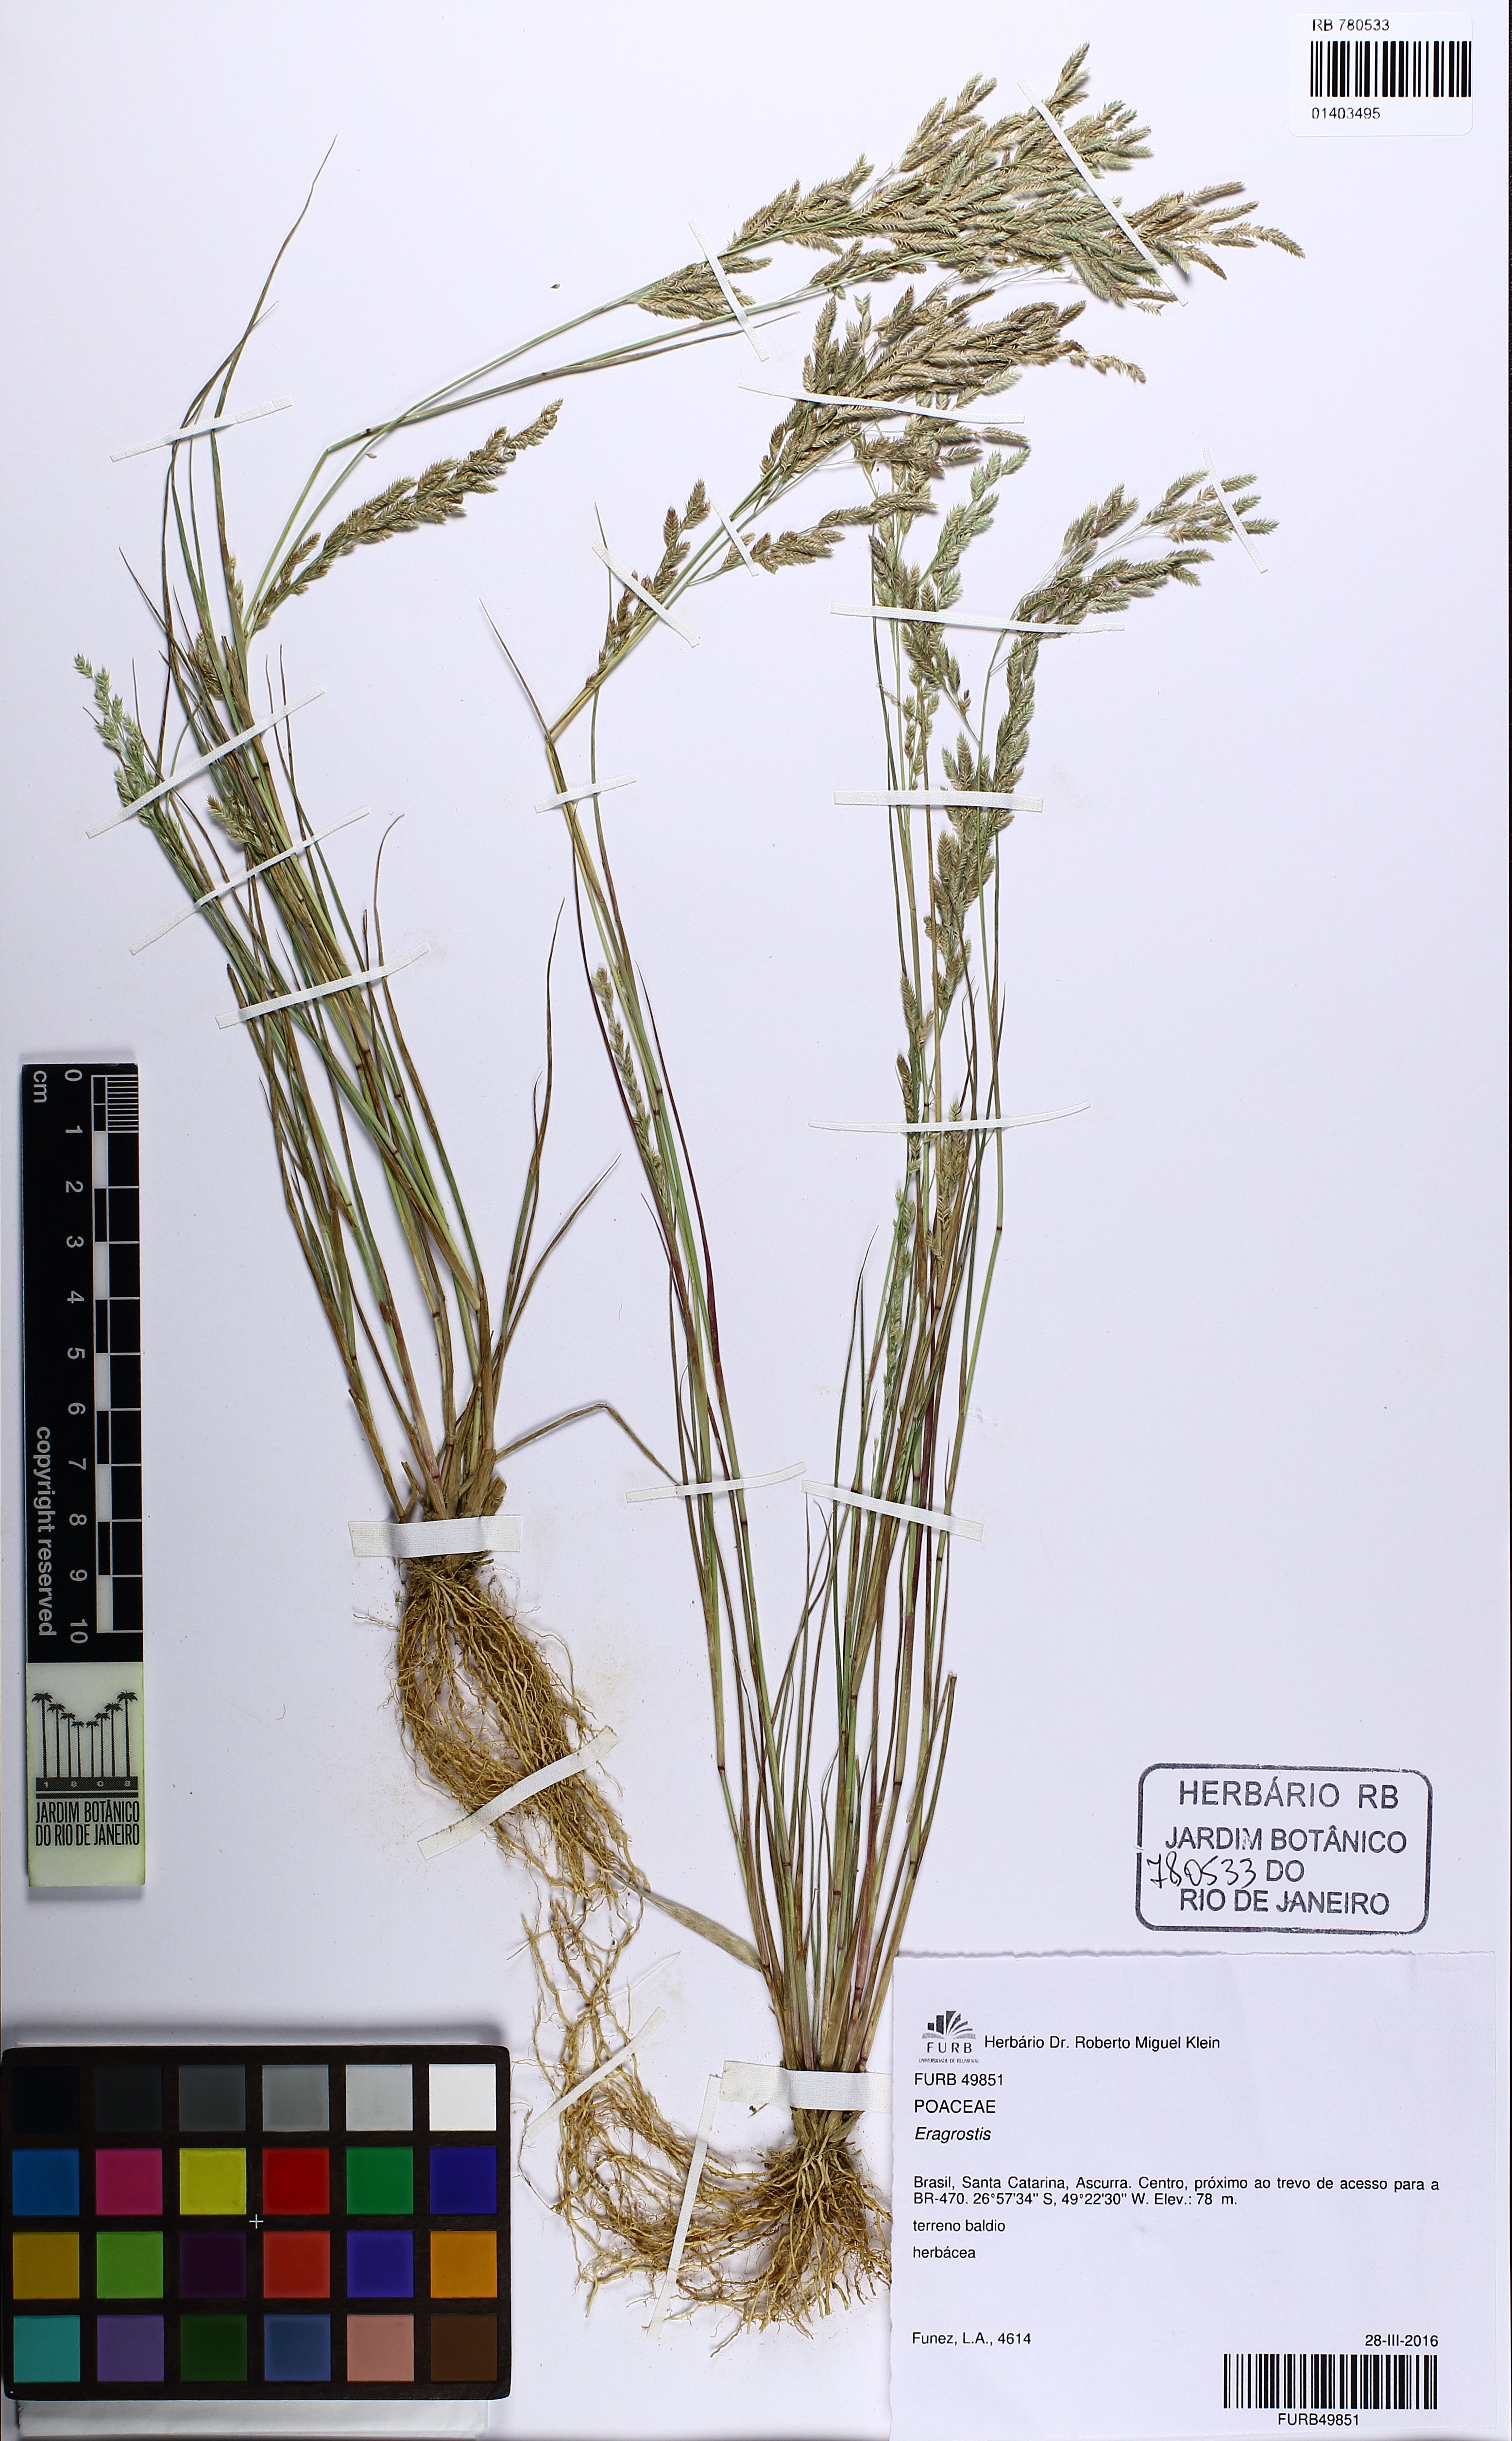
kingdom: Plantae
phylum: Tracheophyta
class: Liliopsida
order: Poales
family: Poaceae
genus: Eragrostis
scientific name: Eragrostis
